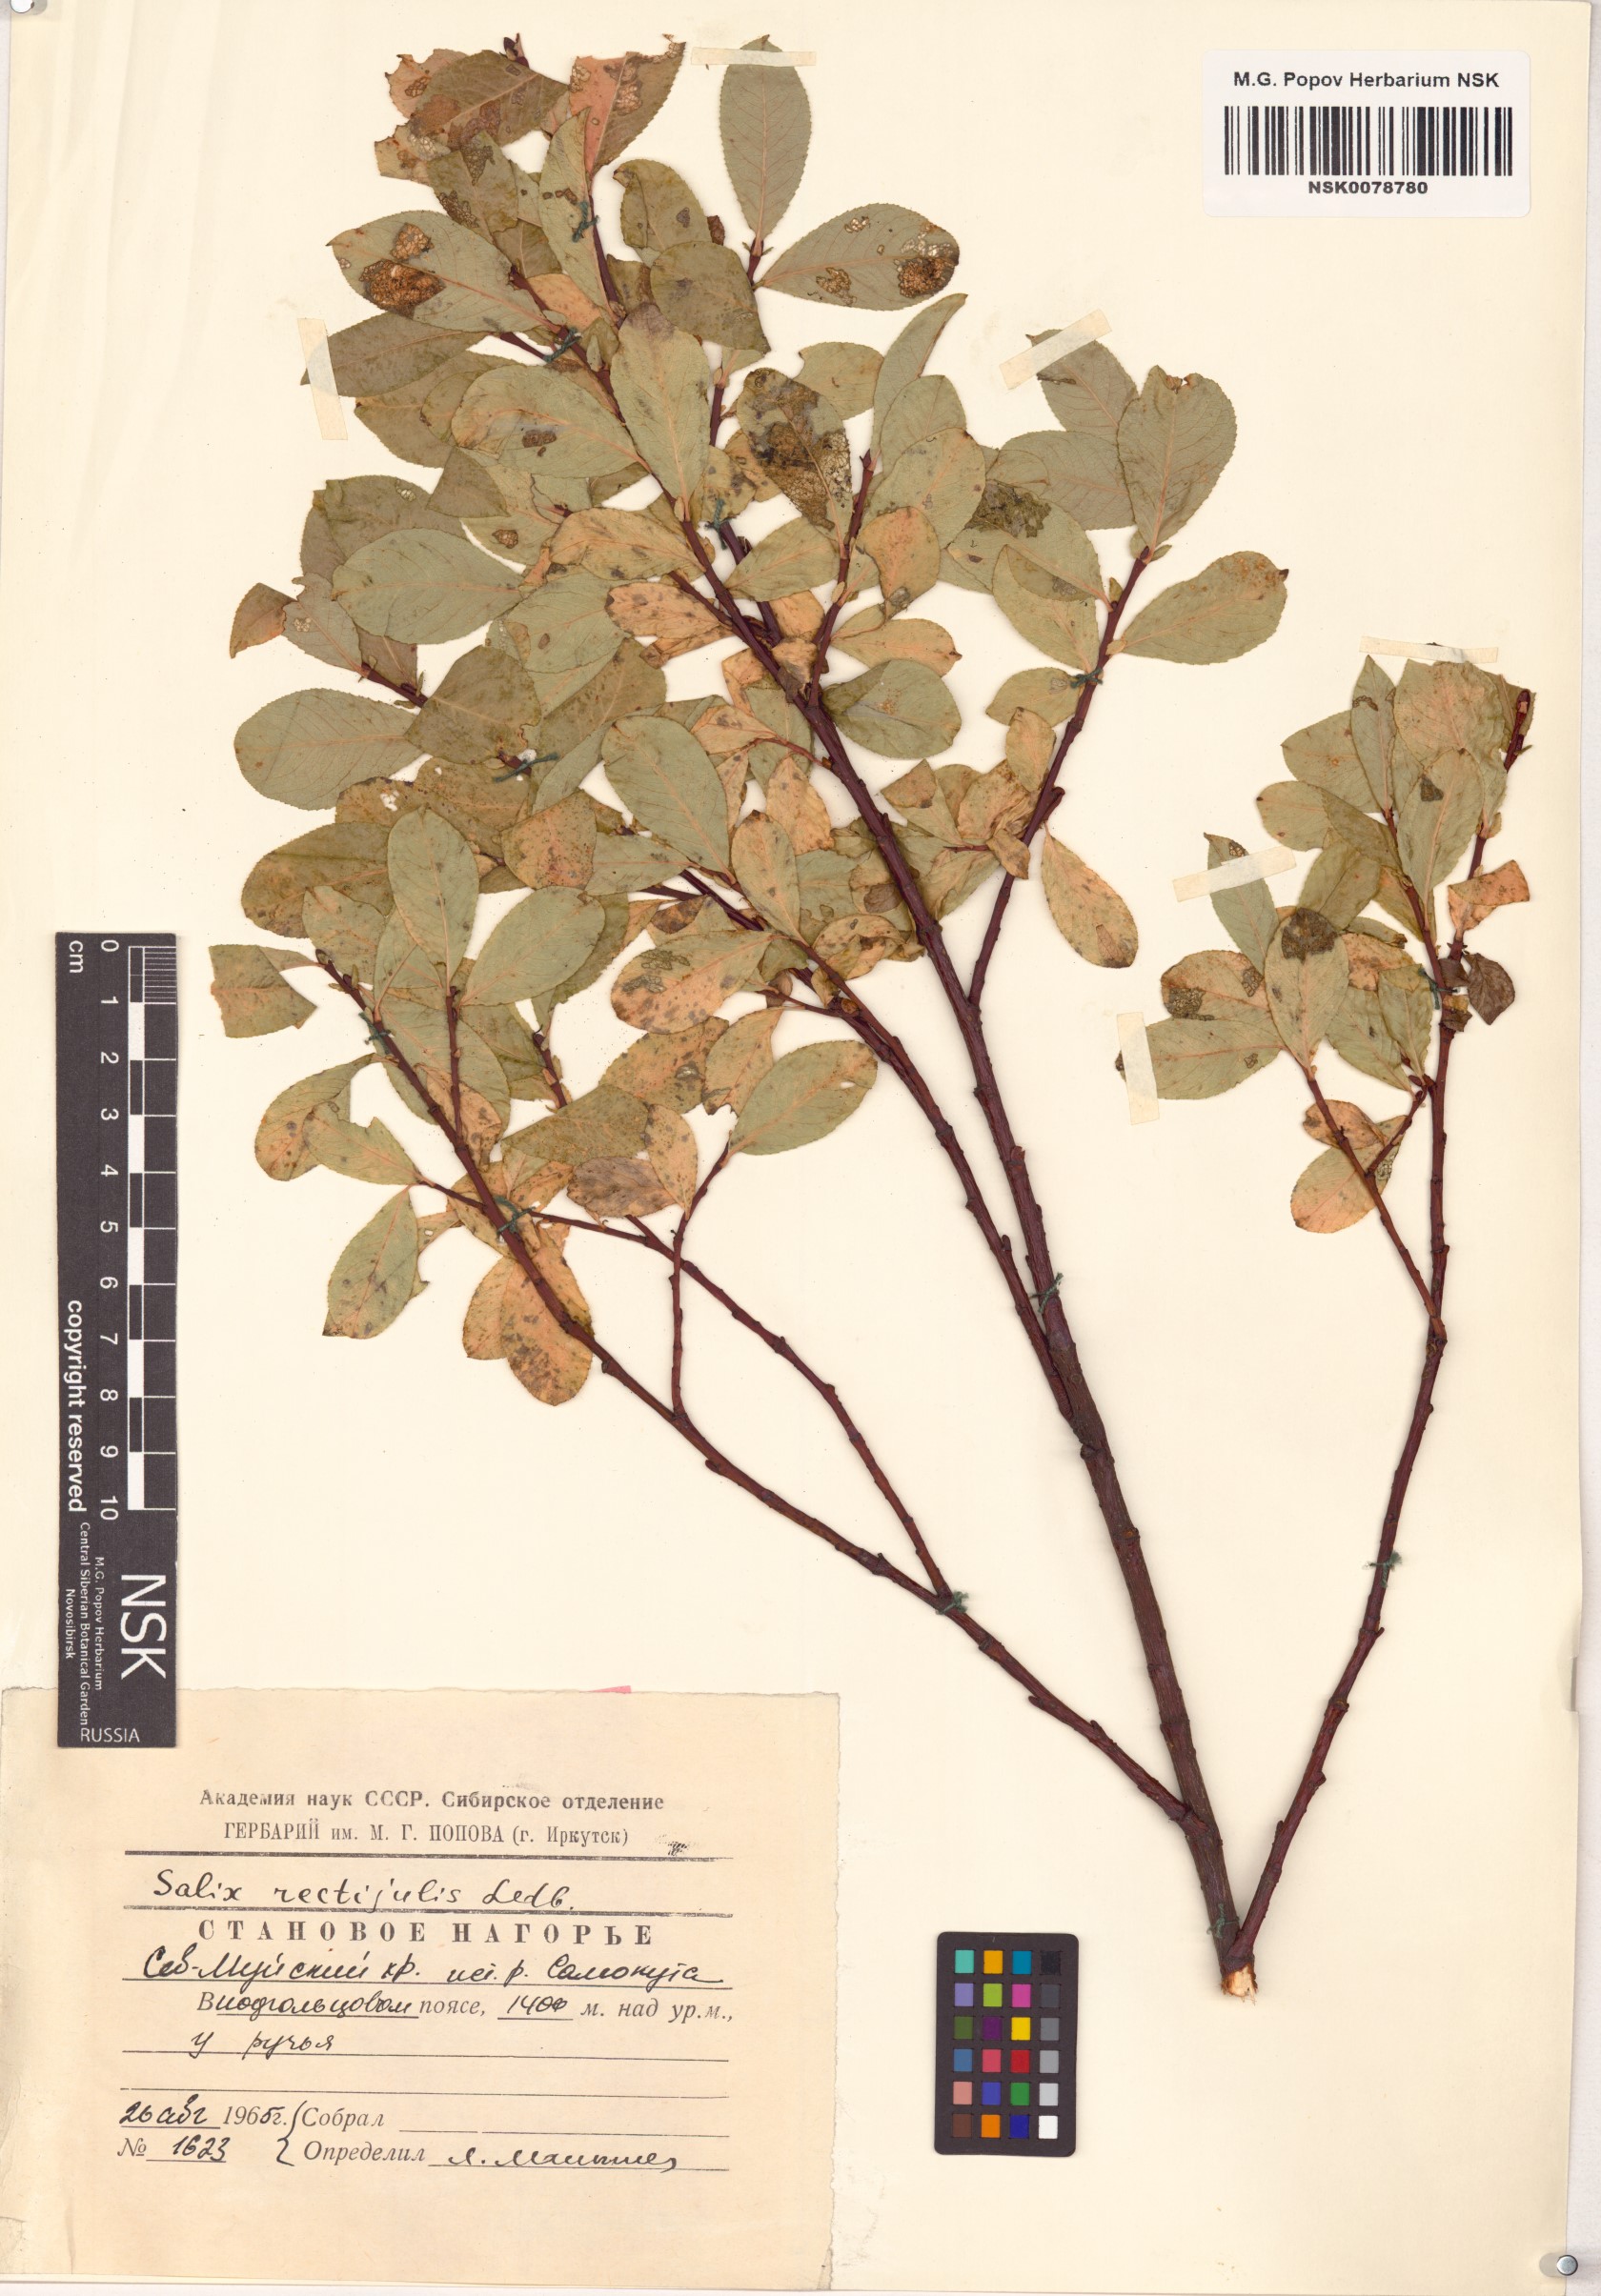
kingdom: Plantae
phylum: Tracheophyta
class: Magnoliopsida
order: Malpighiales
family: Salicaceae
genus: Salix
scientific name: Salix rectijulis
